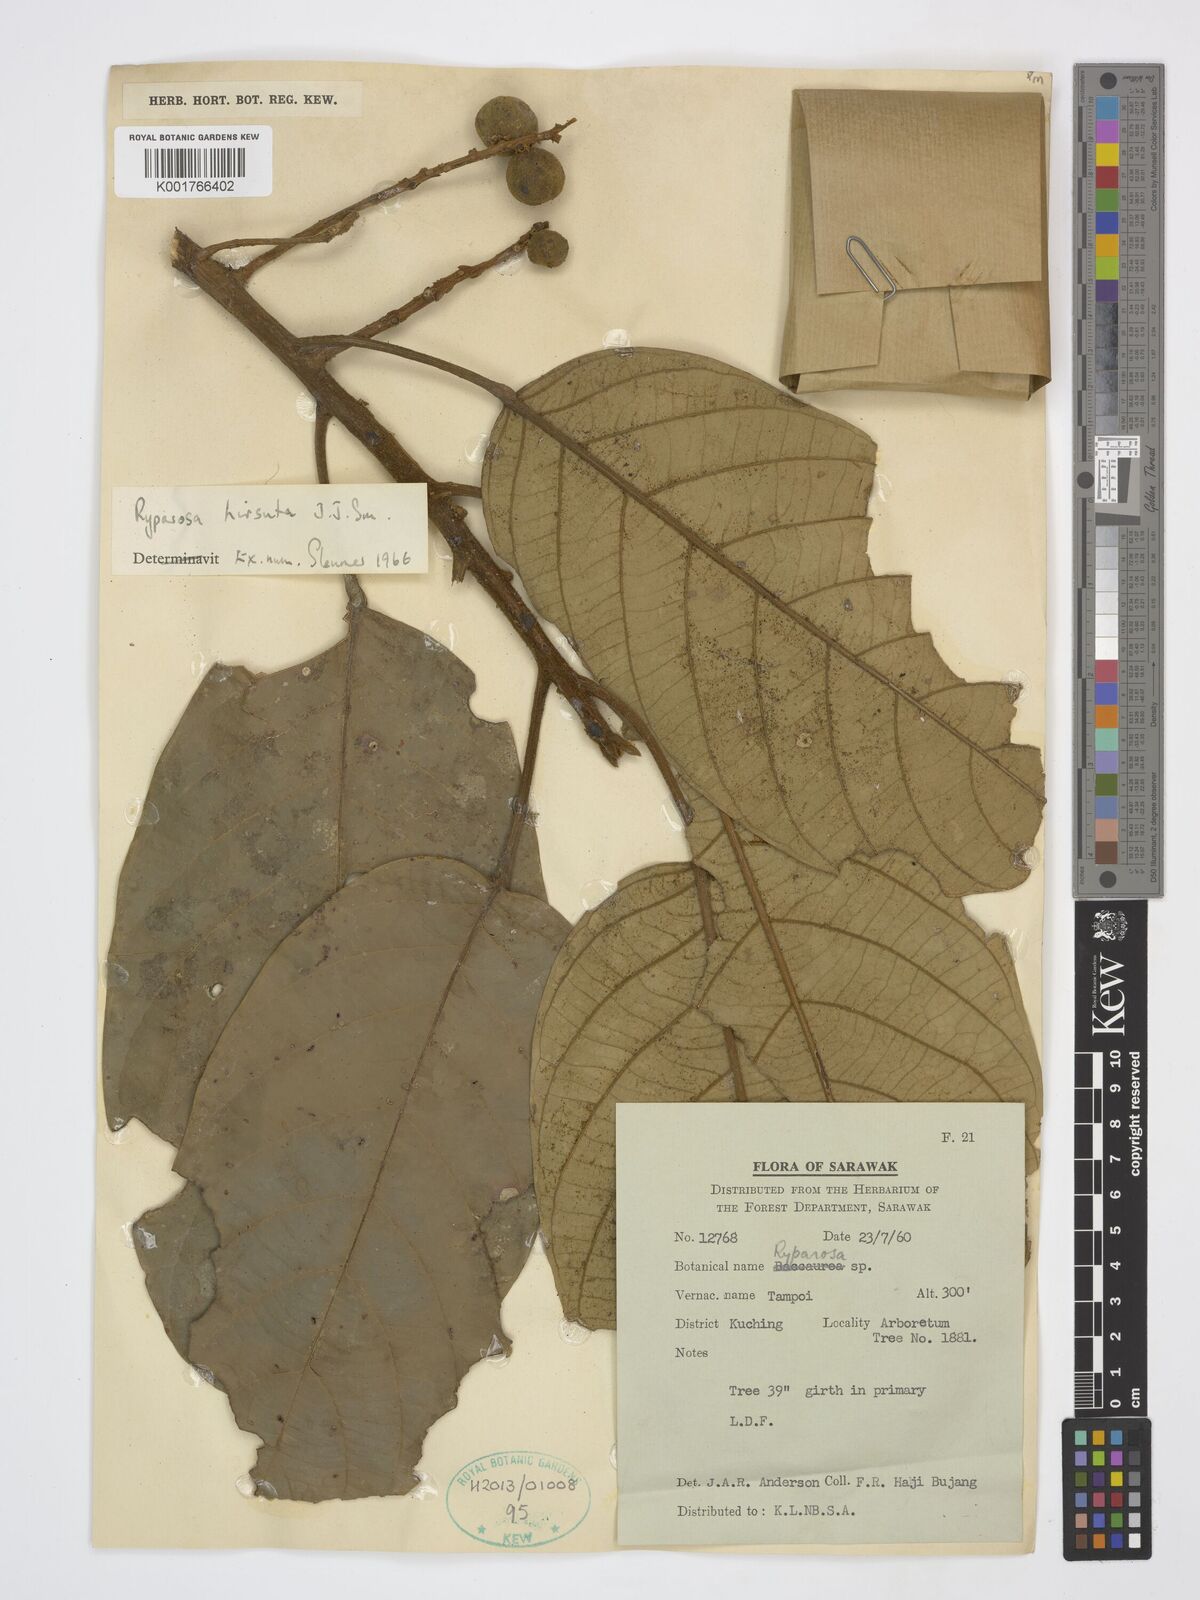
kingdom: Plantae
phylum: Tracheophyta
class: Magnoliopsida
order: Malpighiales
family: Achariaceae
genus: Ryparosa
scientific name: Ryparosa hirsuta
